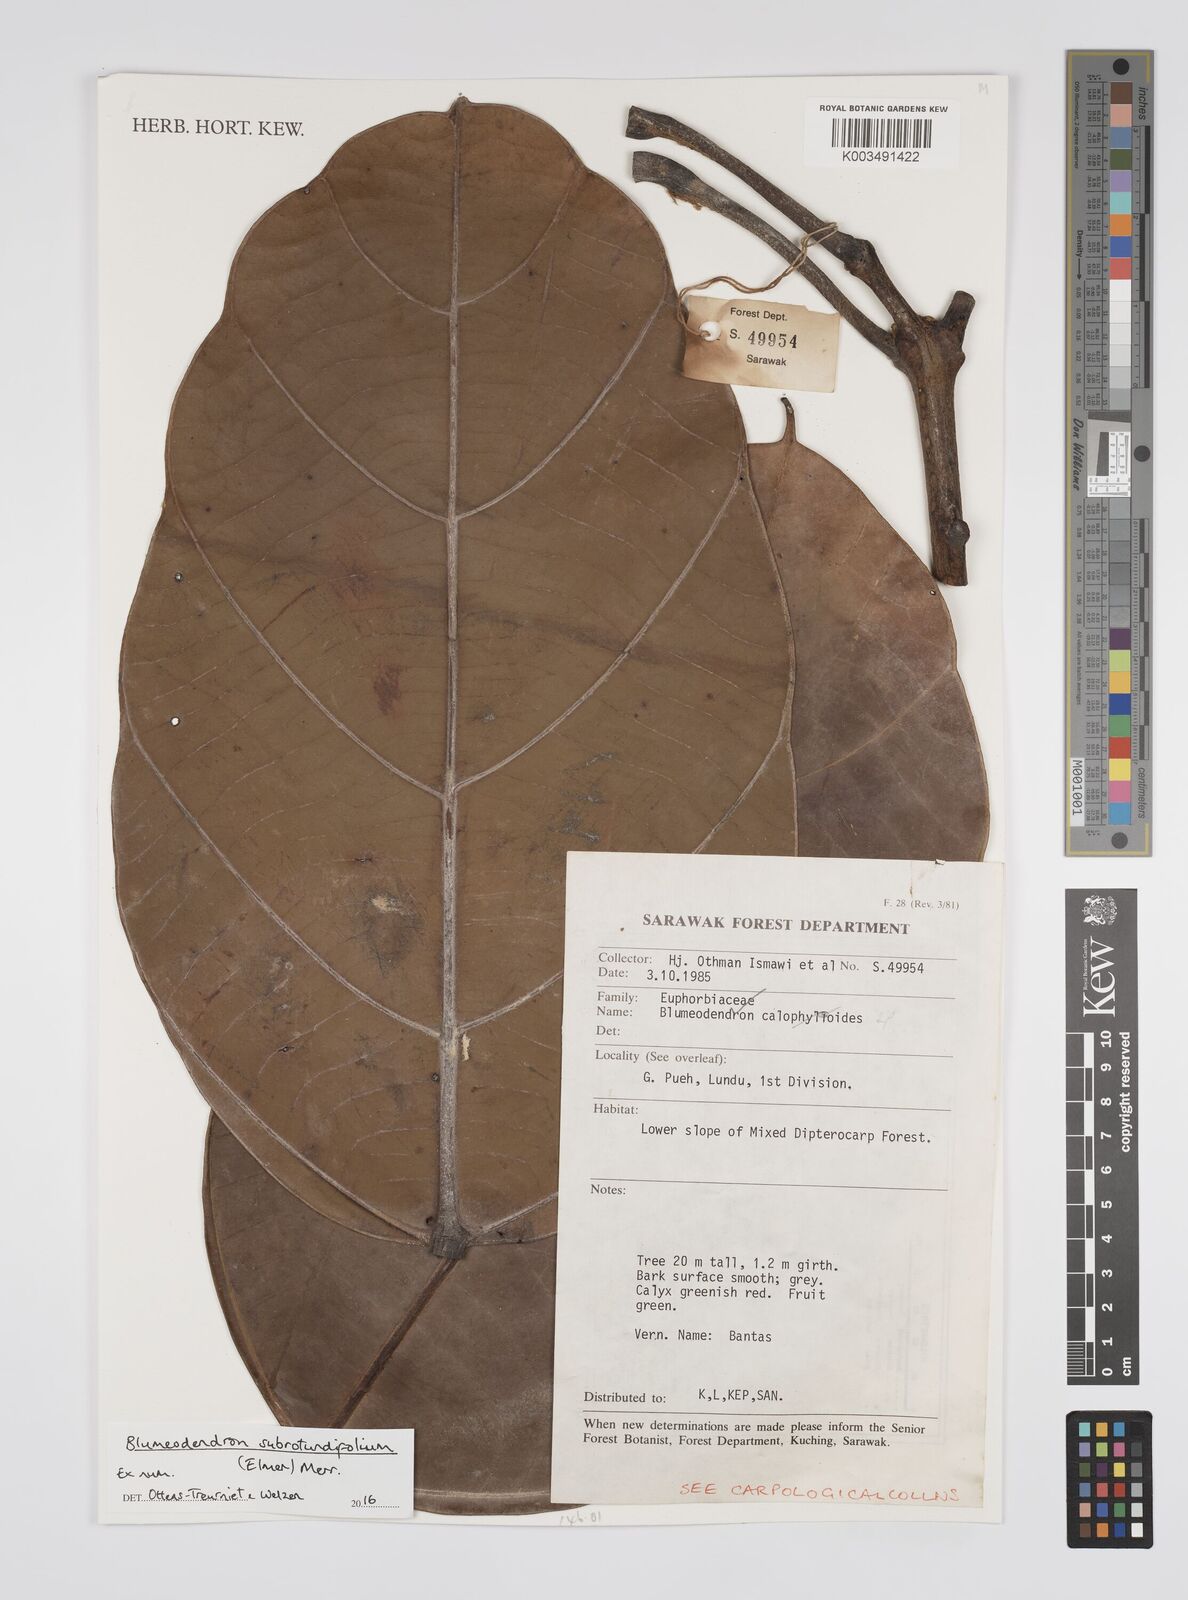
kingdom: Plantae
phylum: Tracheophyta
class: Magnoliopsida
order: Malpighiales
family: Euphorbiaceae
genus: Blumeodendron
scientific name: Blumeodendron subrotundifolium
